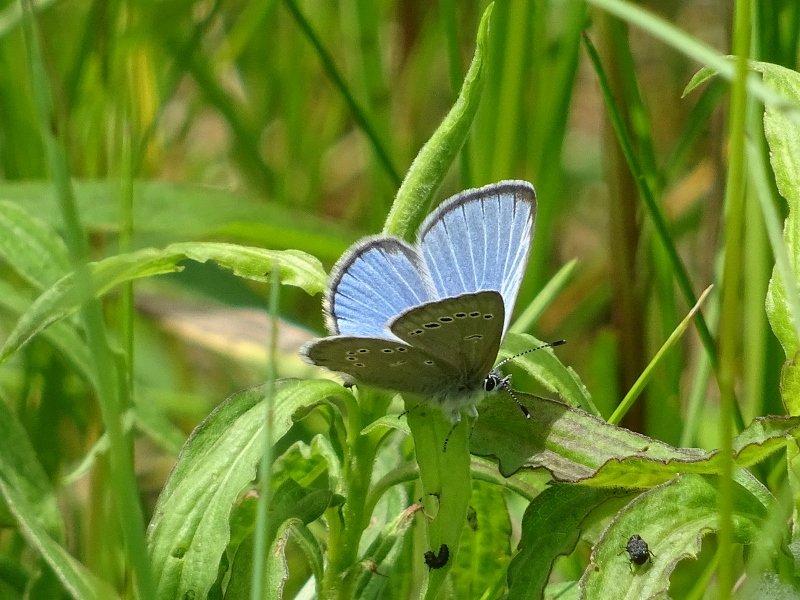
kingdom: Animalia
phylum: Arthropoda
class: Insecta
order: Lepidoptera
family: Lycaenidae
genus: Glaucopsyche
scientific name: Glaucopsyche lygdamus
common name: Silvery Blue
